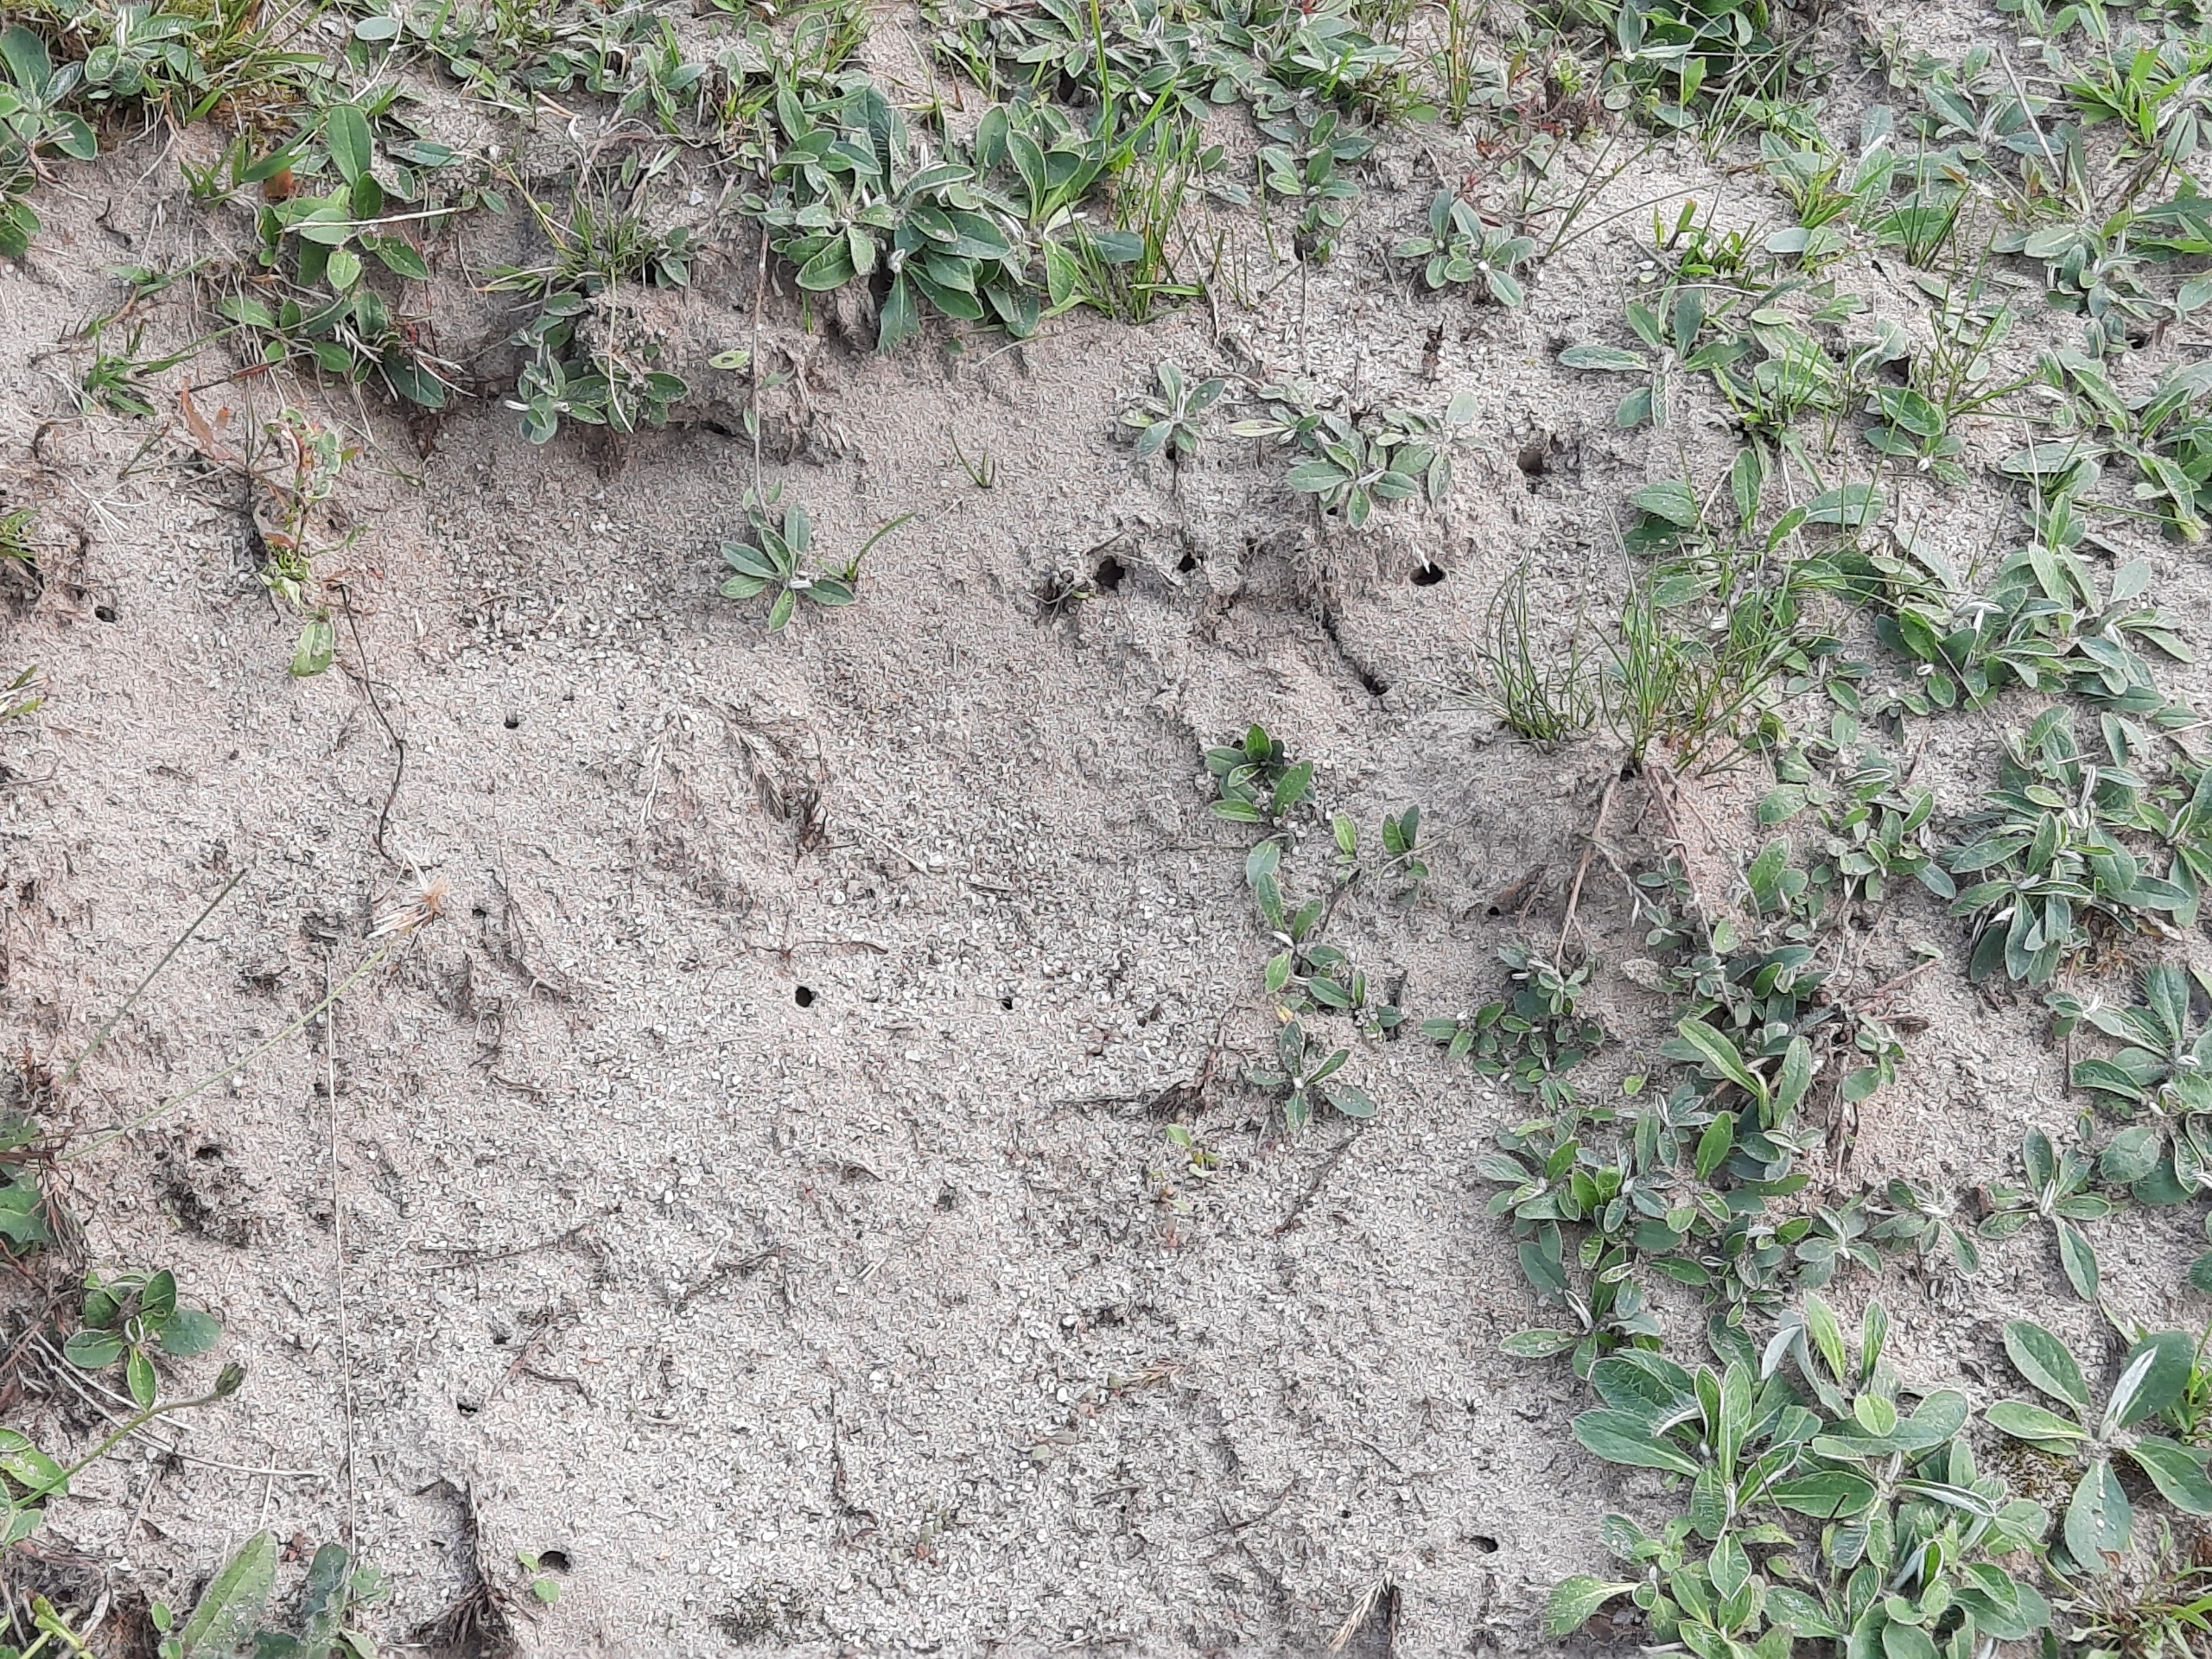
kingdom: Animalia
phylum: Arthropoda
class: Insecta
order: Hymenoptera
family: Melittidae
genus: Dasypoda
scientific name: Dasypoda hirtipes
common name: Pragtbuksebi
